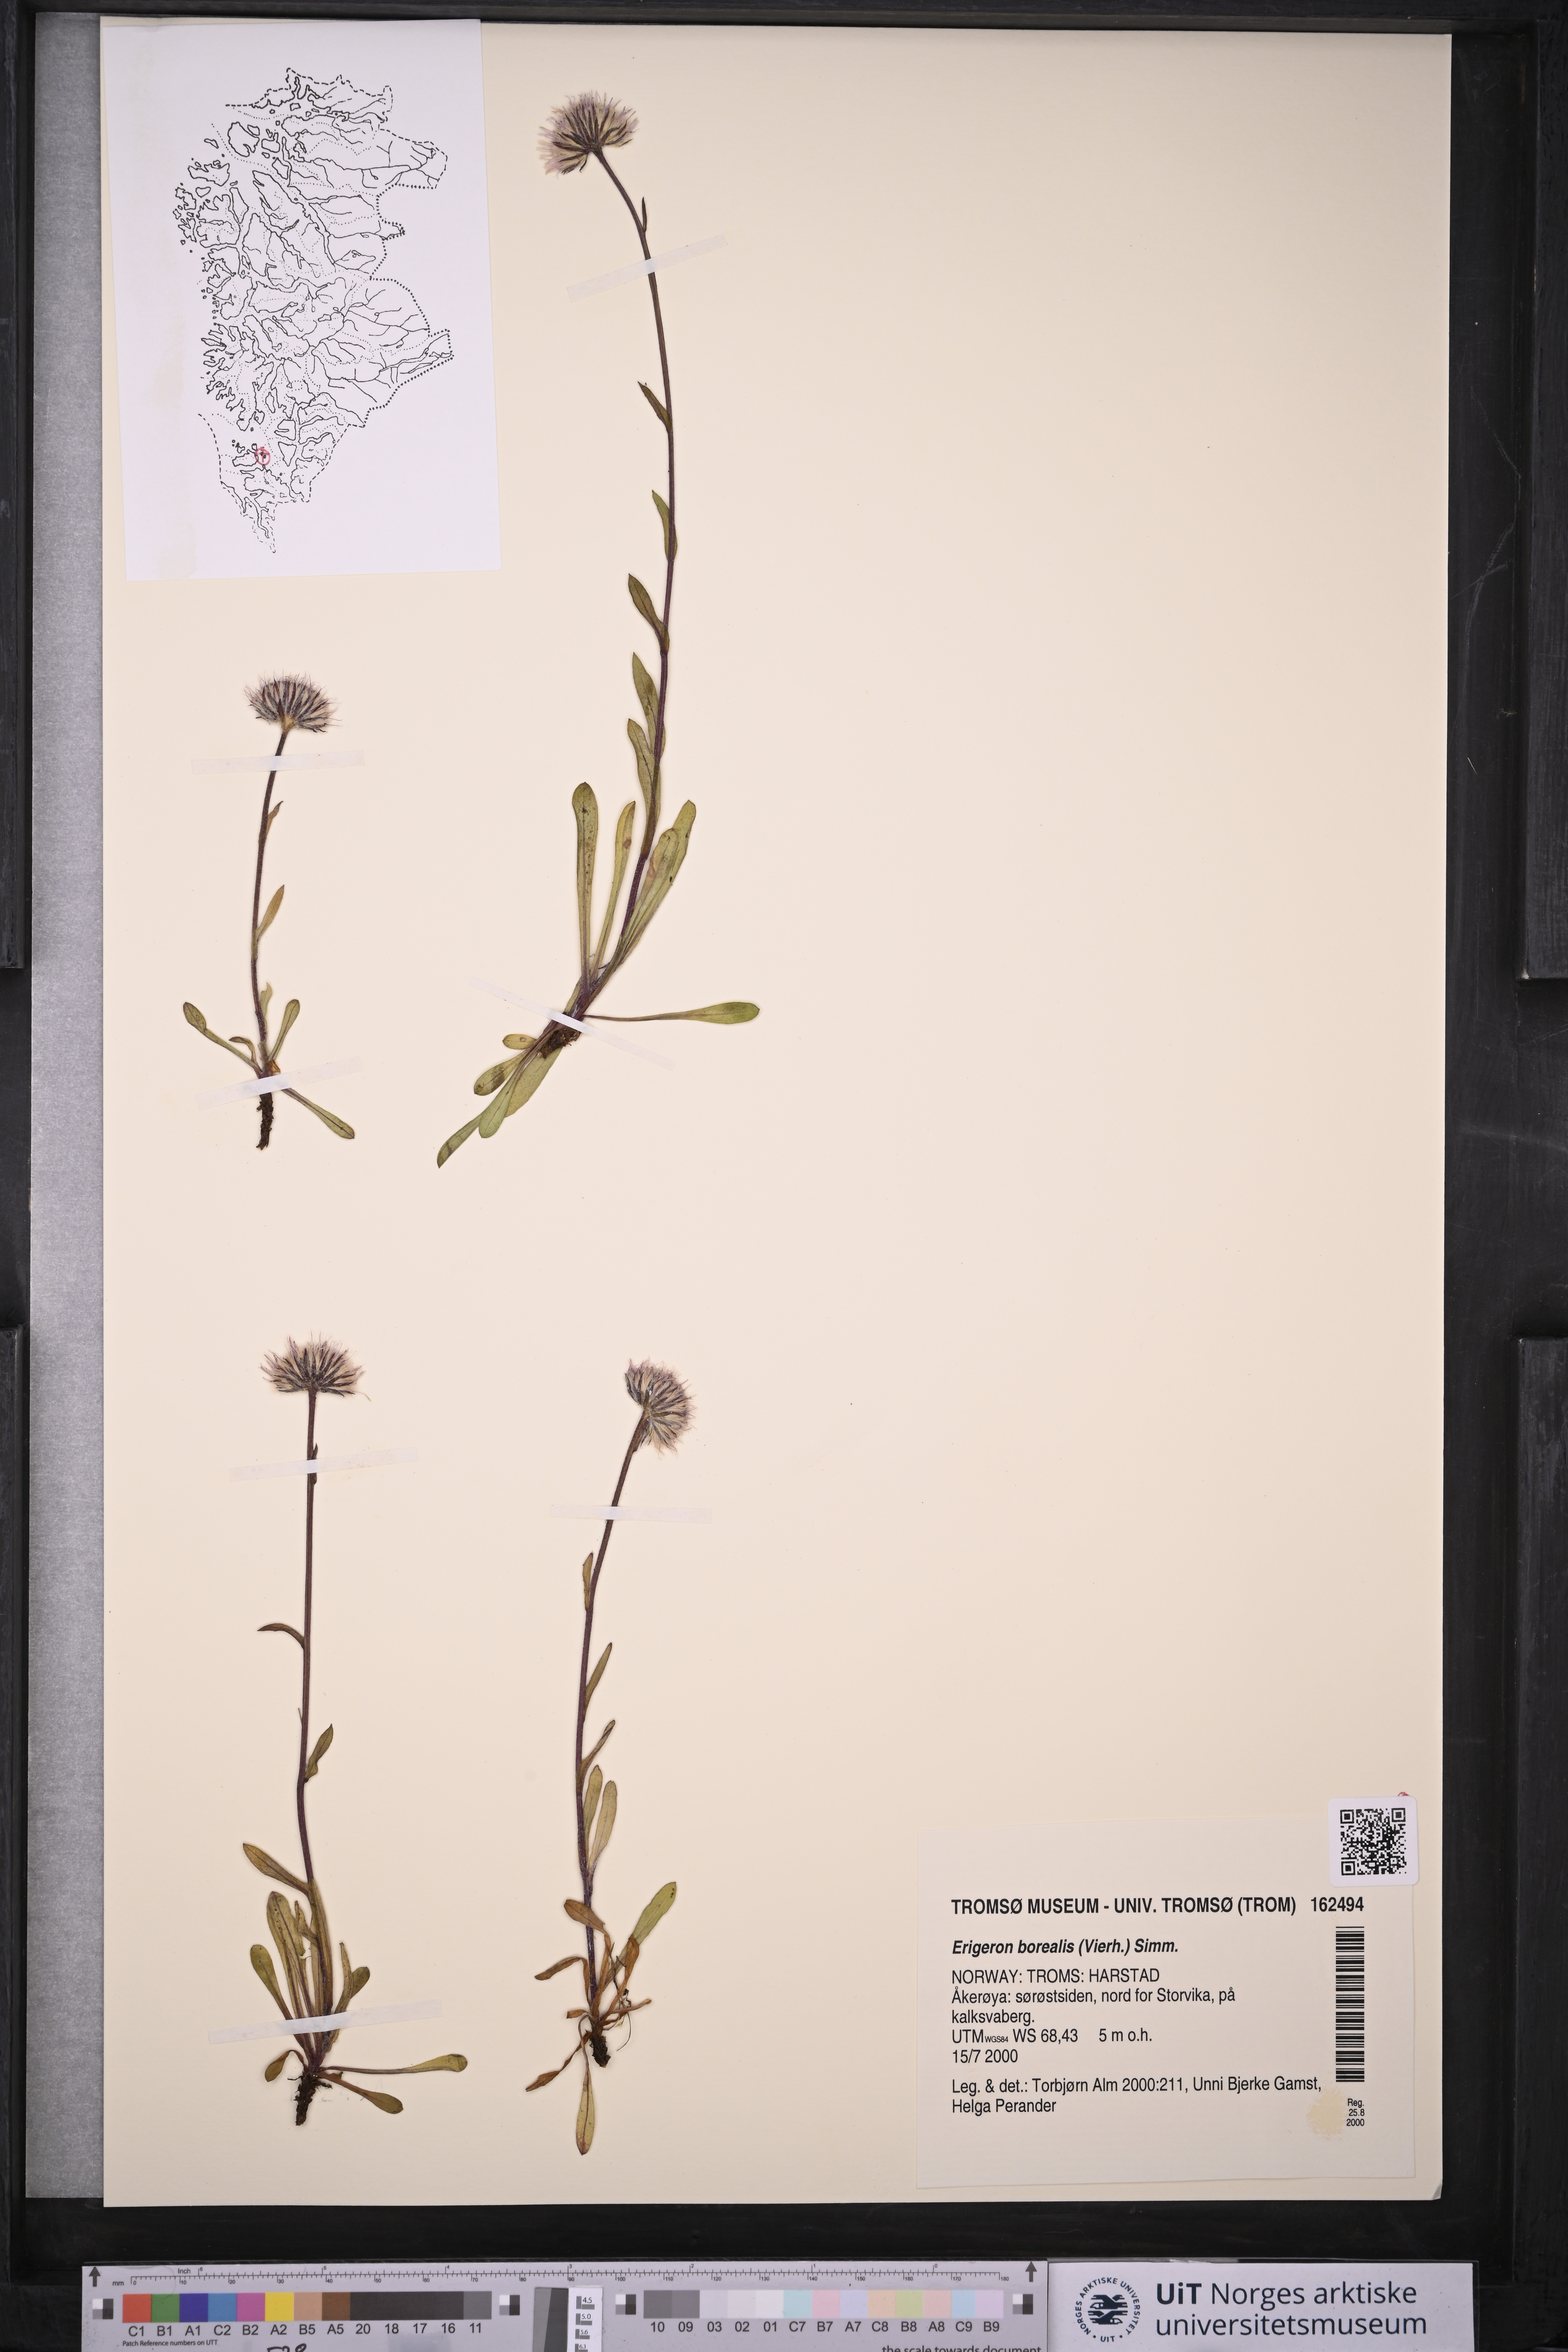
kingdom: Plantae
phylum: Tracheophyta
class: Magnoliopsida
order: Asterales
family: Asteraceae
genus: Erigeron
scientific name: Erigeron borealis
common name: Alpine fleabane
